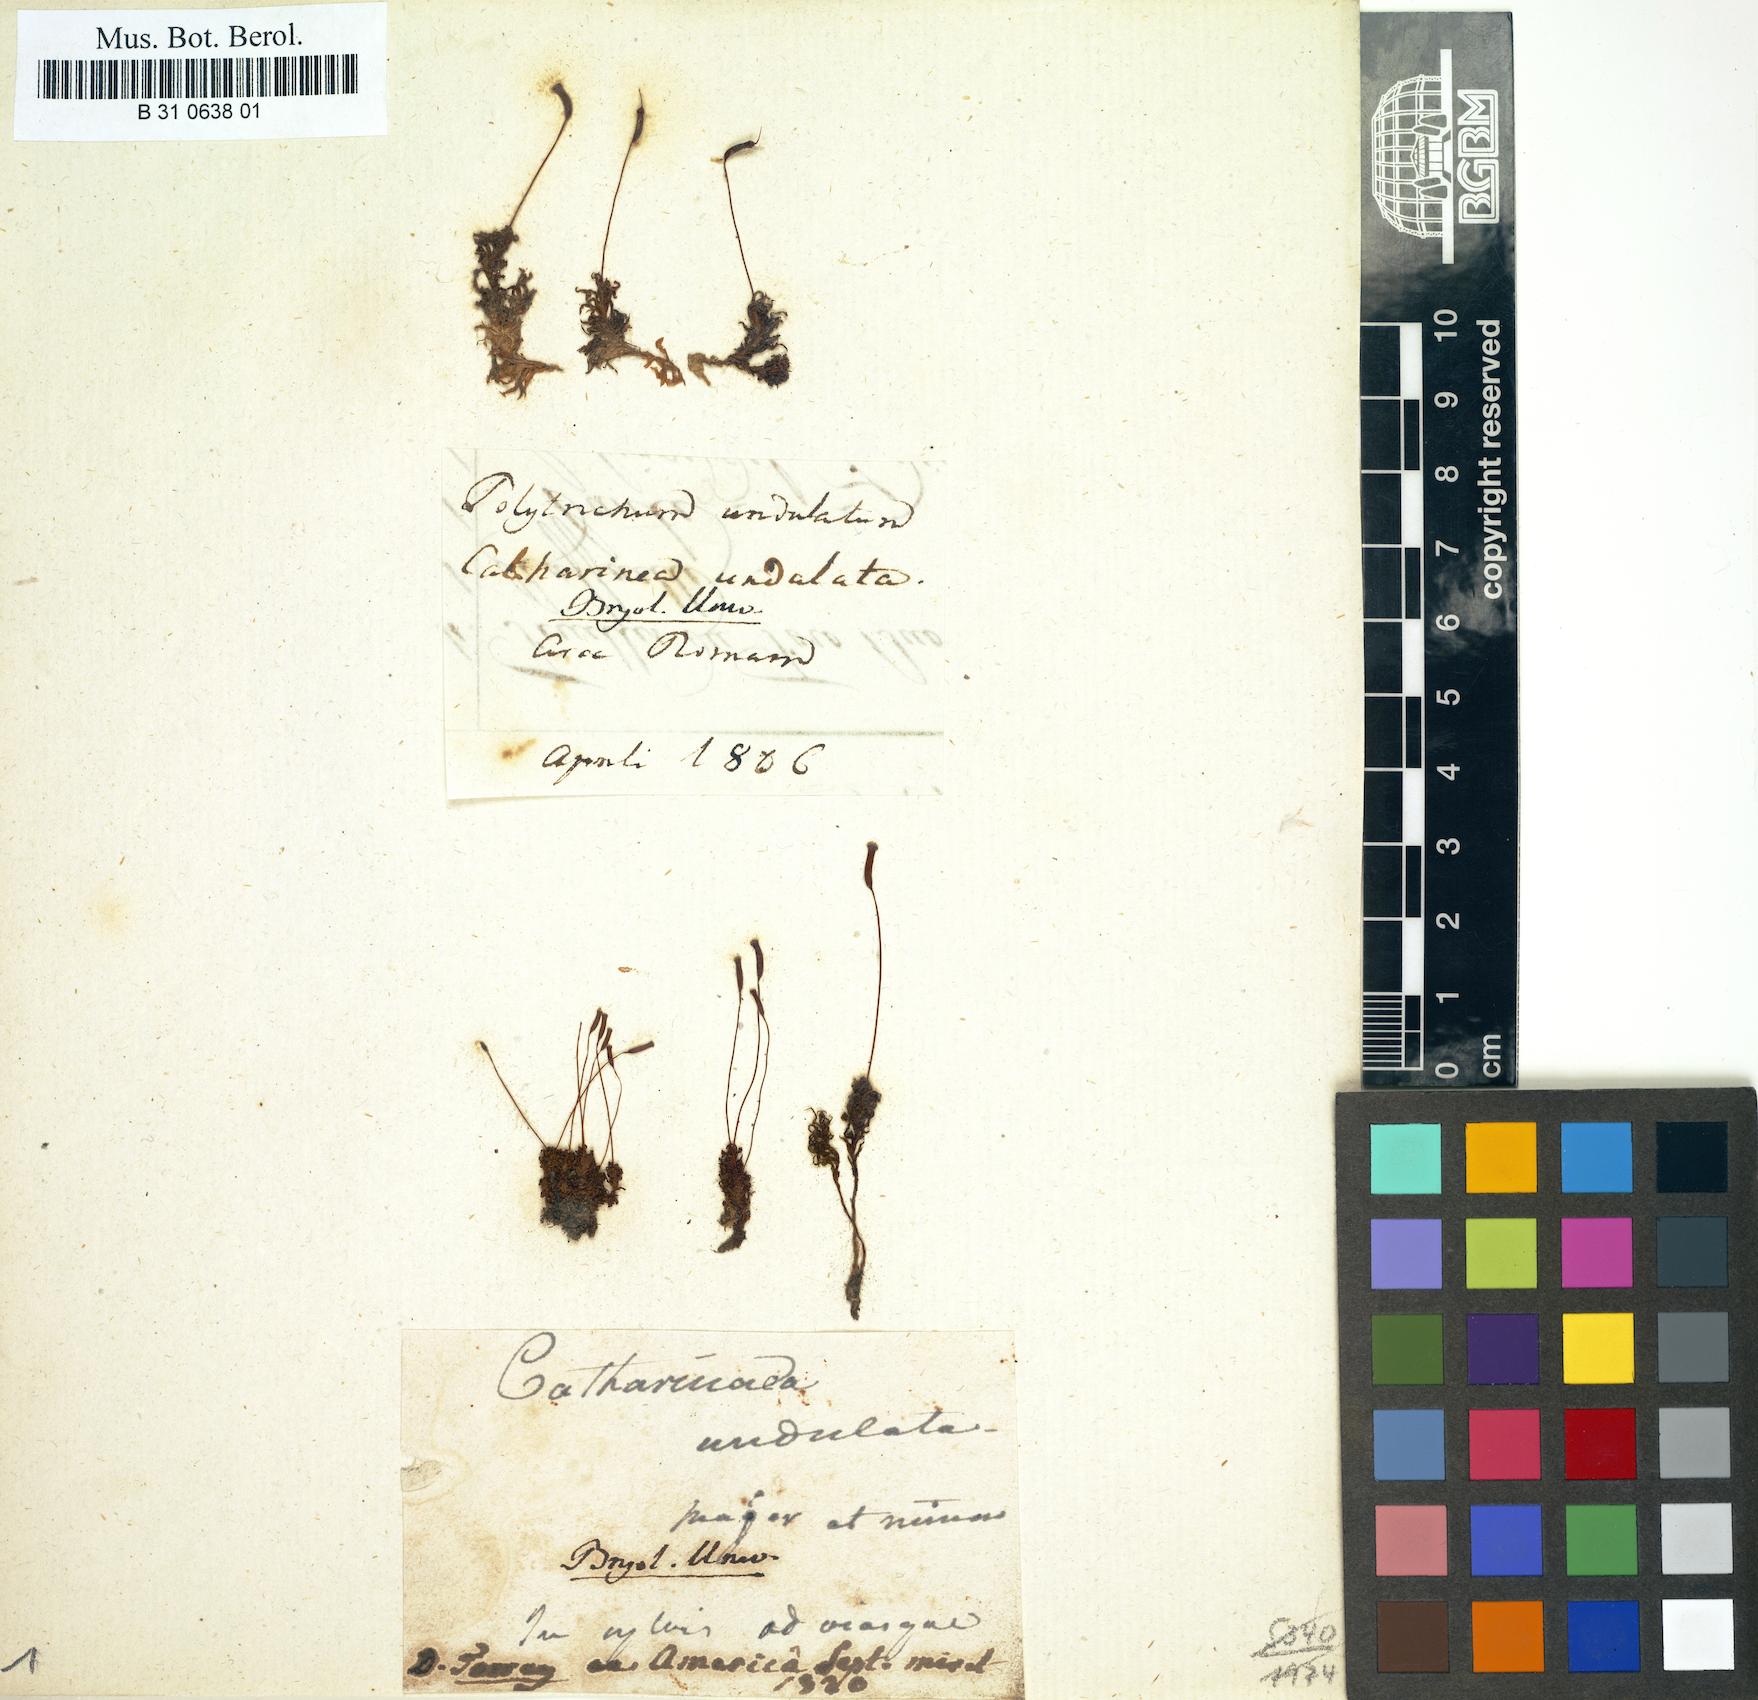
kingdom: Plantae
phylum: Bryophyta
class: Polytrichopsida
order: Polytrichales
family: Polytrichaceae
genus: Atrichum
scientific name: Atrichum undulatum
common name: Common smoothcap
